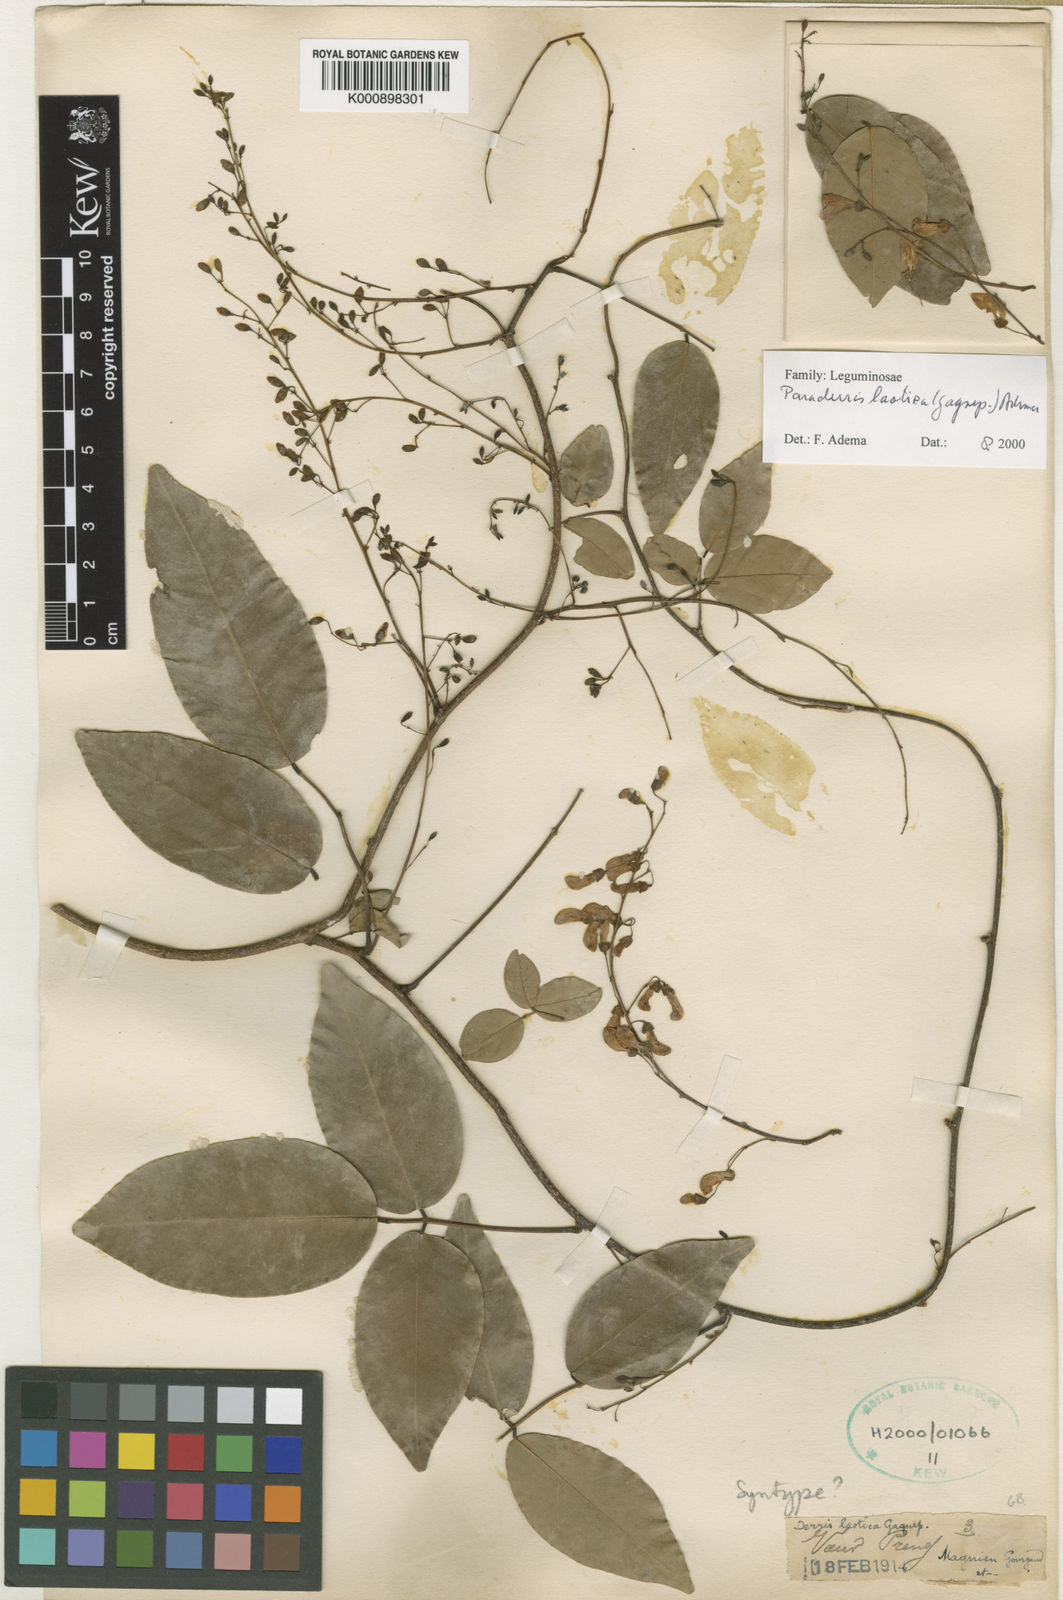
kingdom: Plantae
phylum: Tracheophyta
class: Magnoliopsida
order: Fabales
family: Fabaceae
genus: Derris
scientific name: Derris laotica
